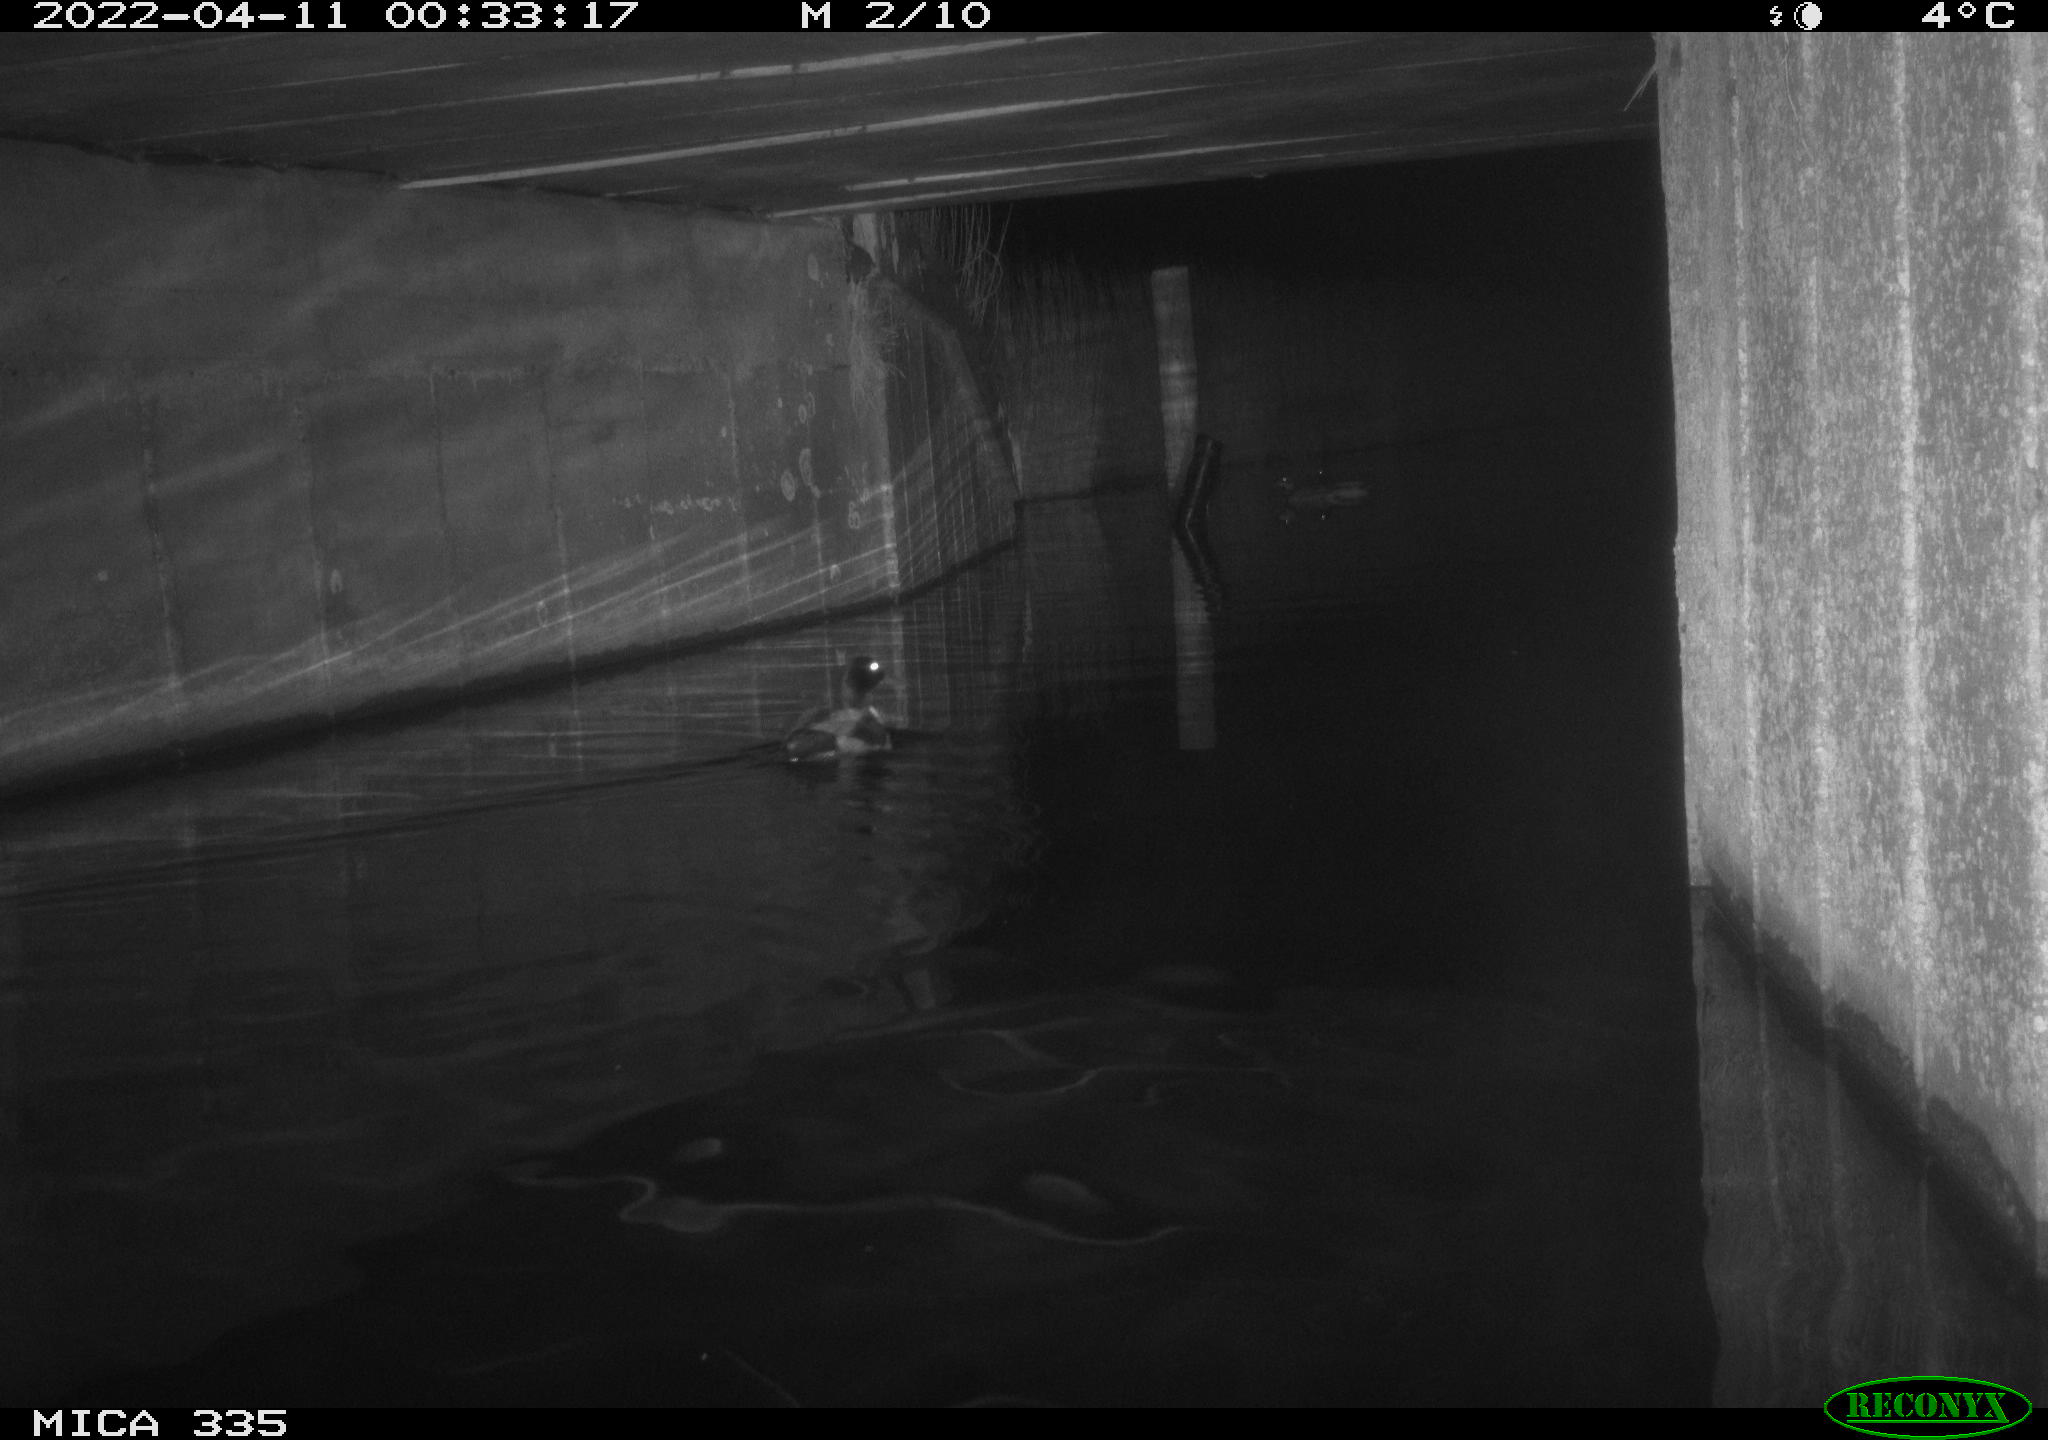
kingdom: Animalia
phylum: Chordata
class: Aves
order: Anseriformes
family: Anatidae
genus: Anas
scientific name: Anas platyrhynchos
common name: Mallard
